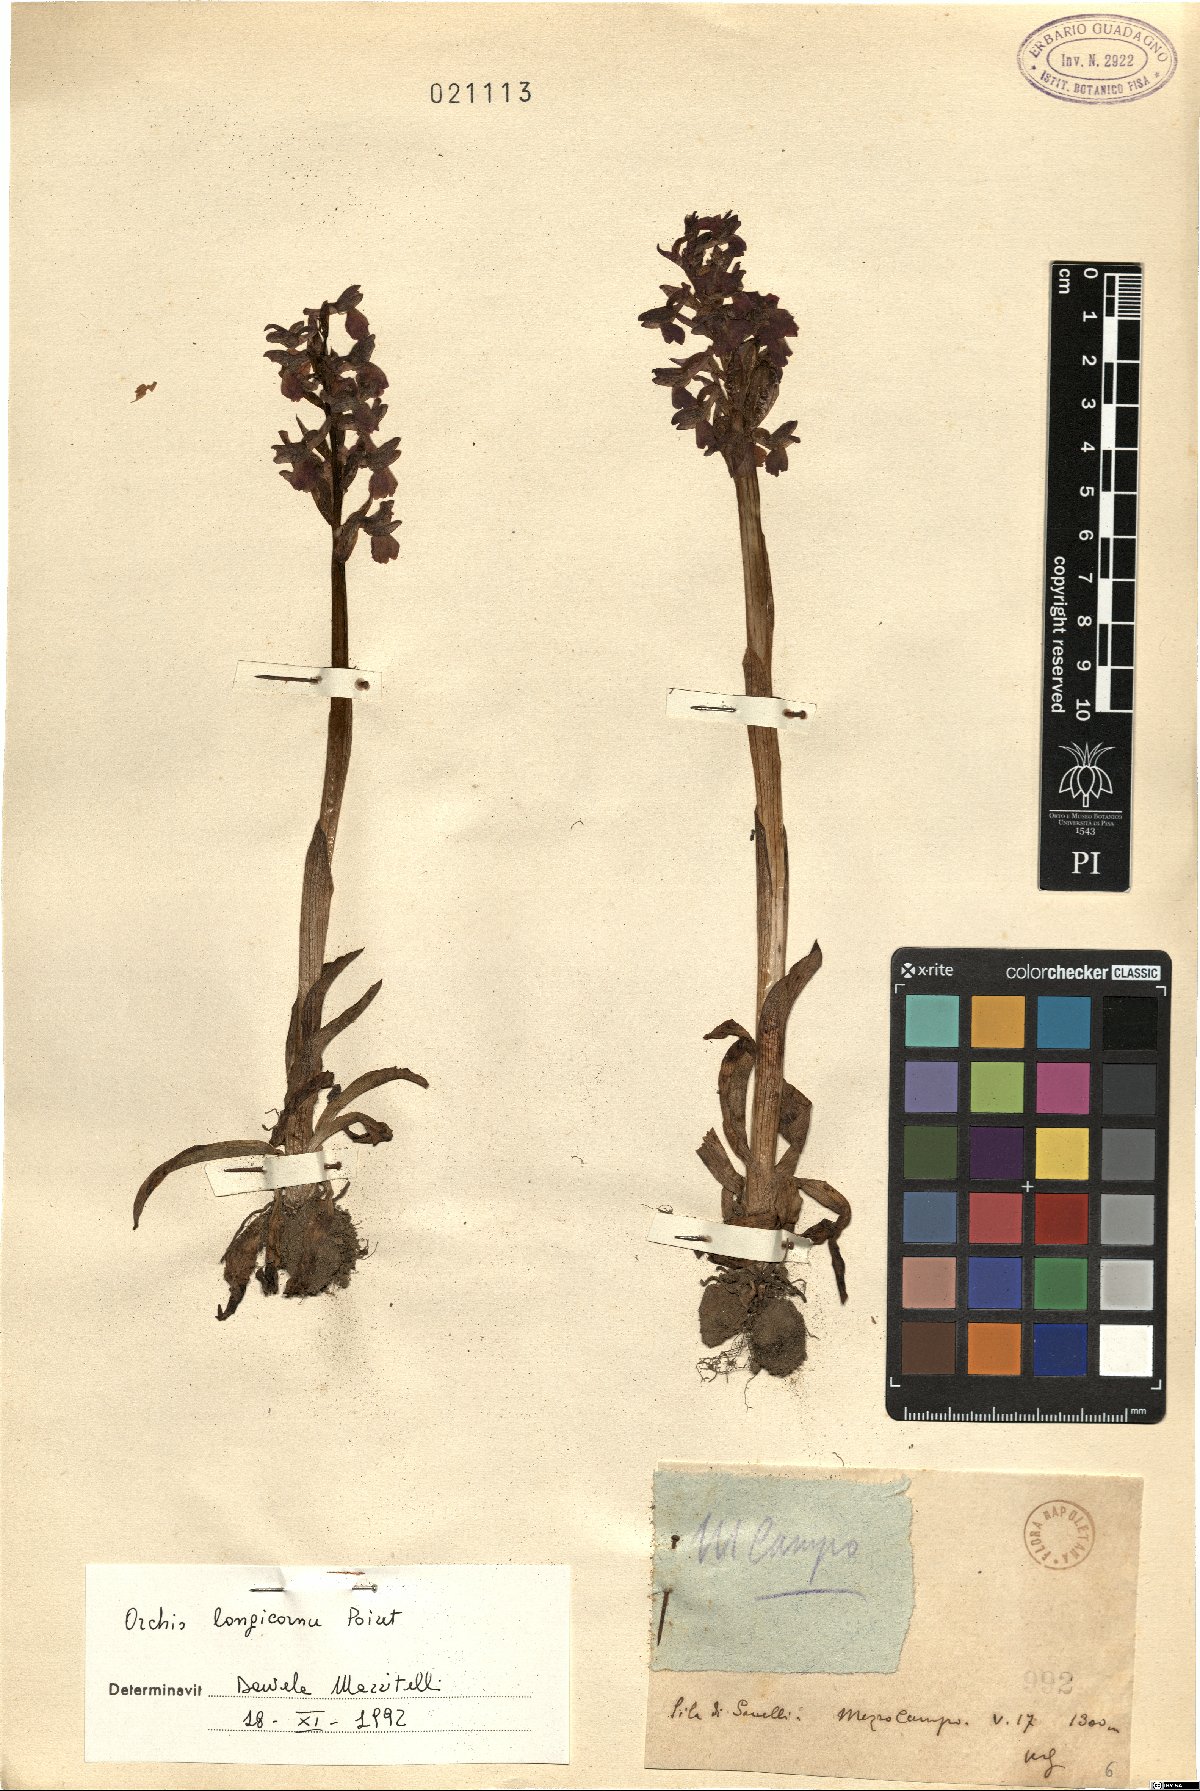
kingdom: Plantae
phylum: Tracheophyta
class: Liliopsida
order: Asparagales
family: Orchidaceae
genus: Anacamptis
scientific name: Anacamptis morio
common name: Green-winged orchid
